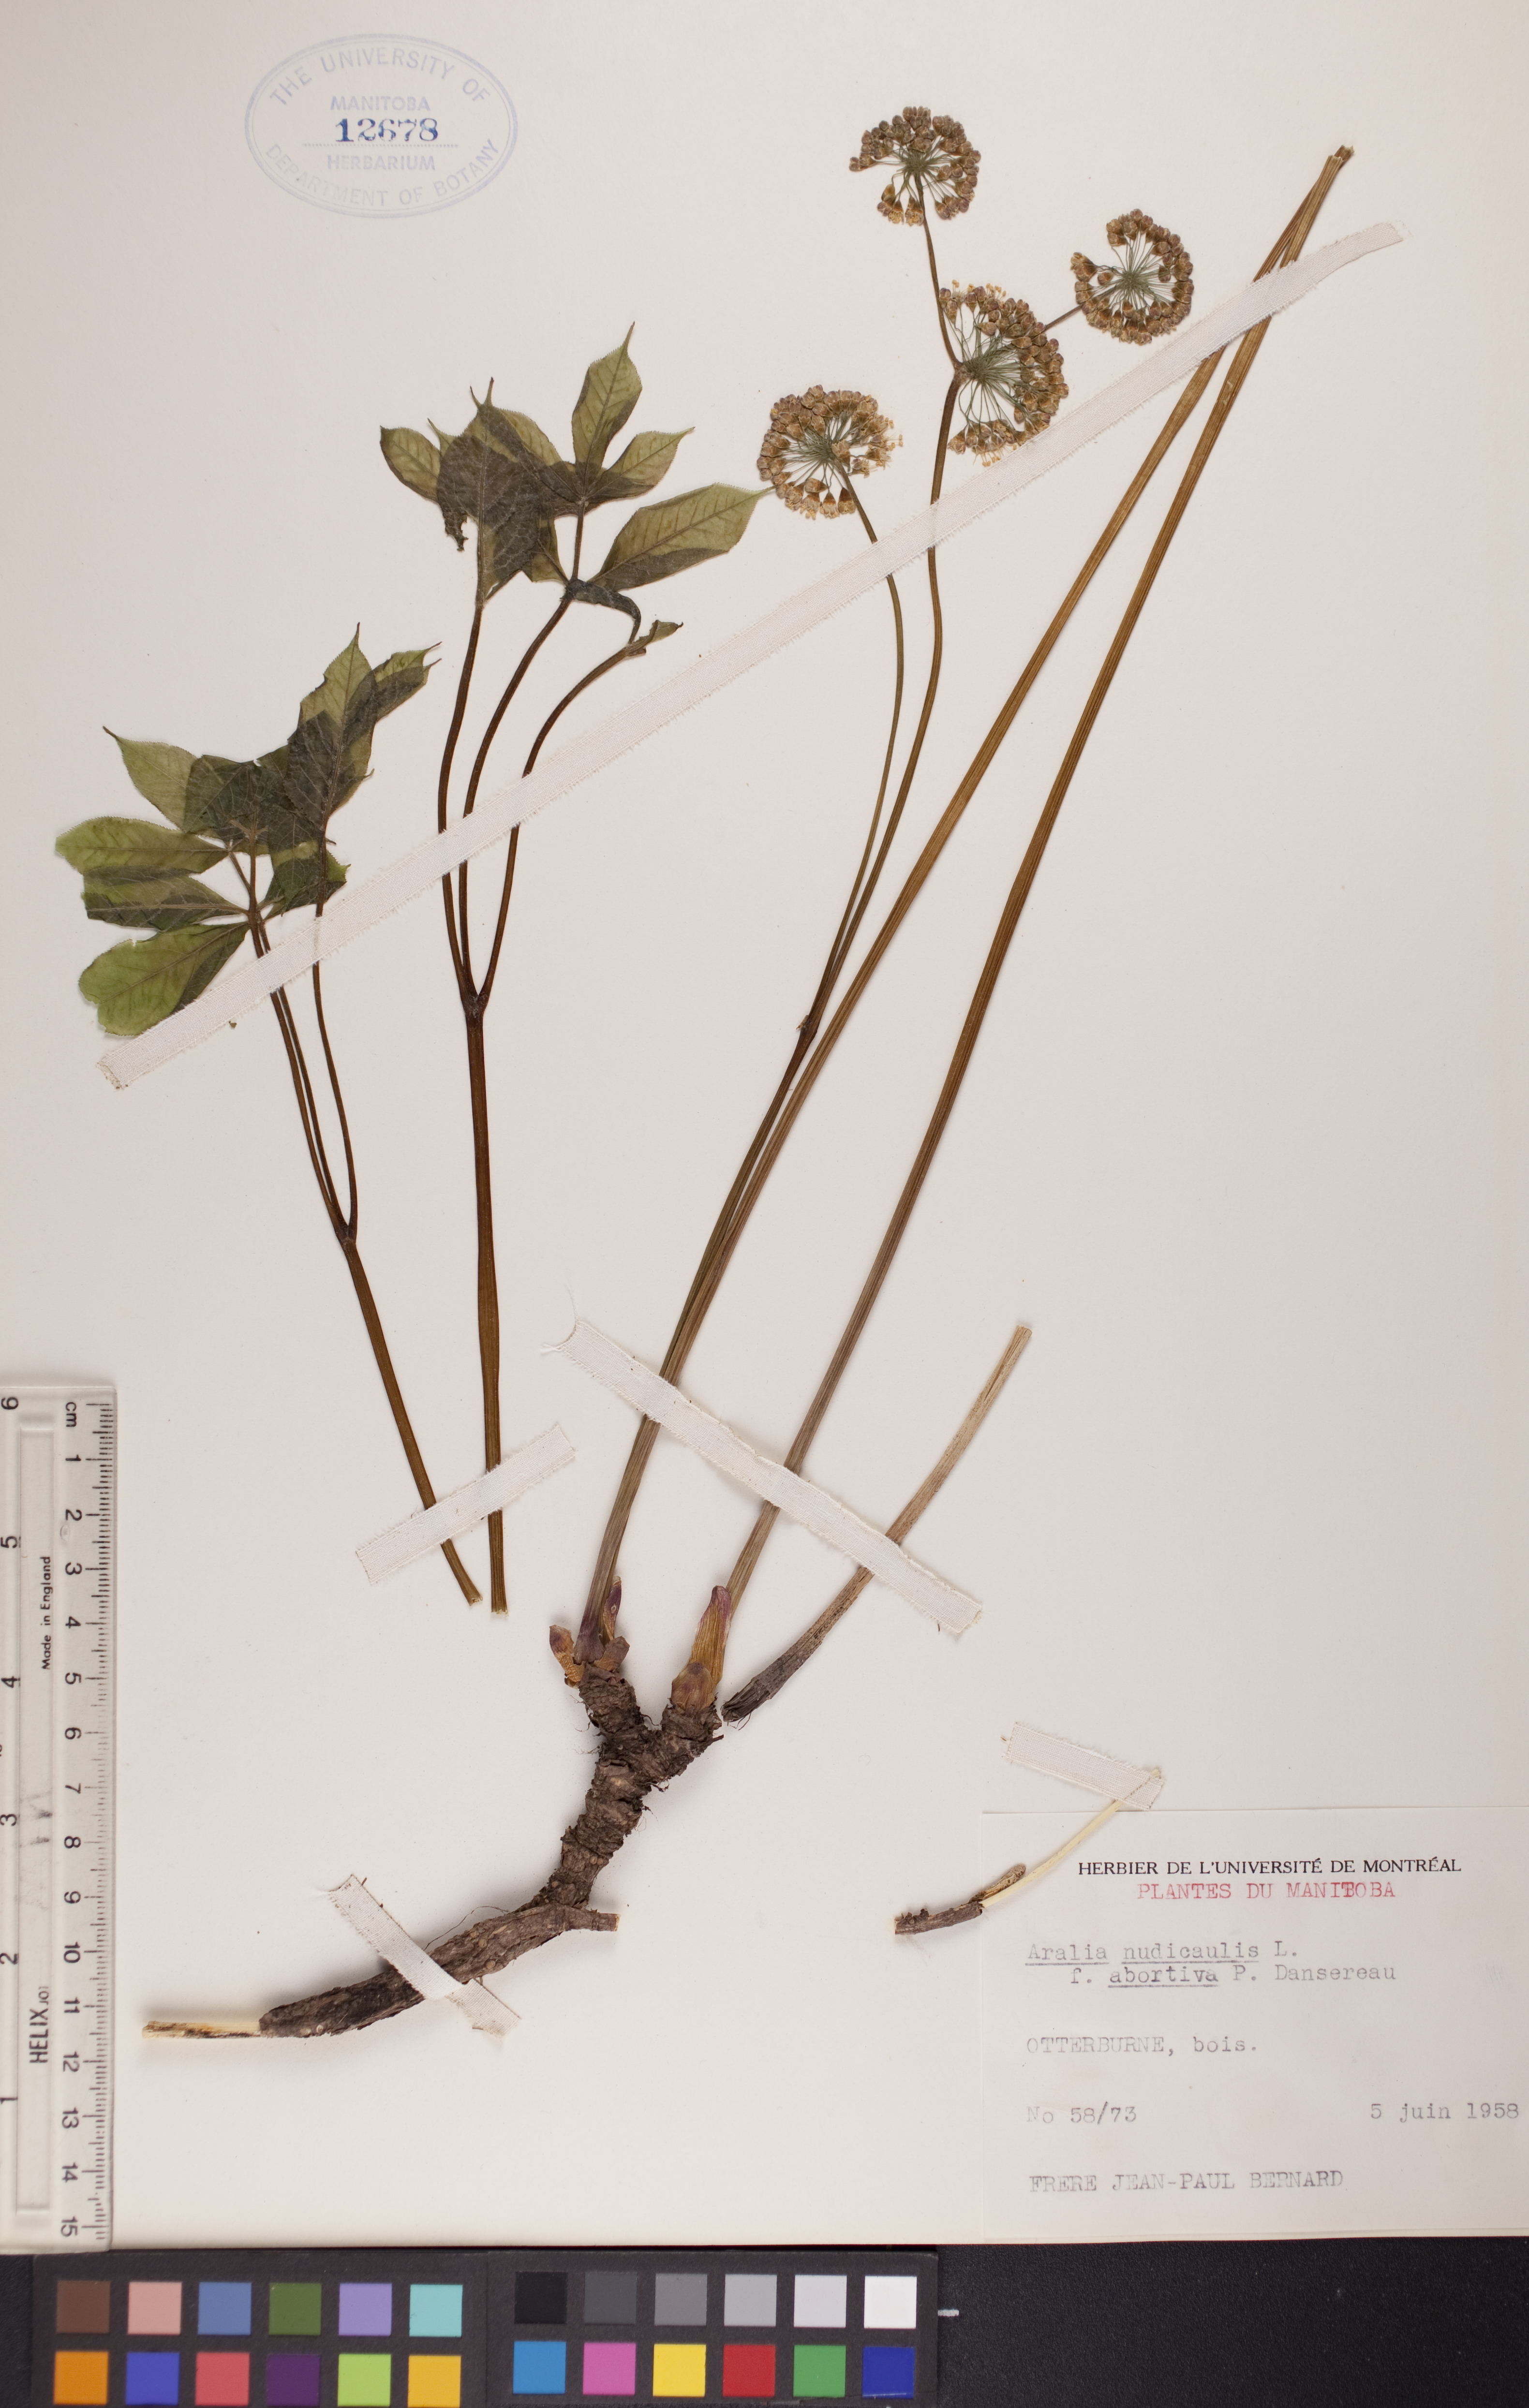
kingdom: Plantae
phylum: Tracheophyta
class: Magnoliopsida
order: Apiales
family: Araliaceae
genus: Aralia
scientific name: Aralia nudicaulis
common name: Wild sarsaparilla
